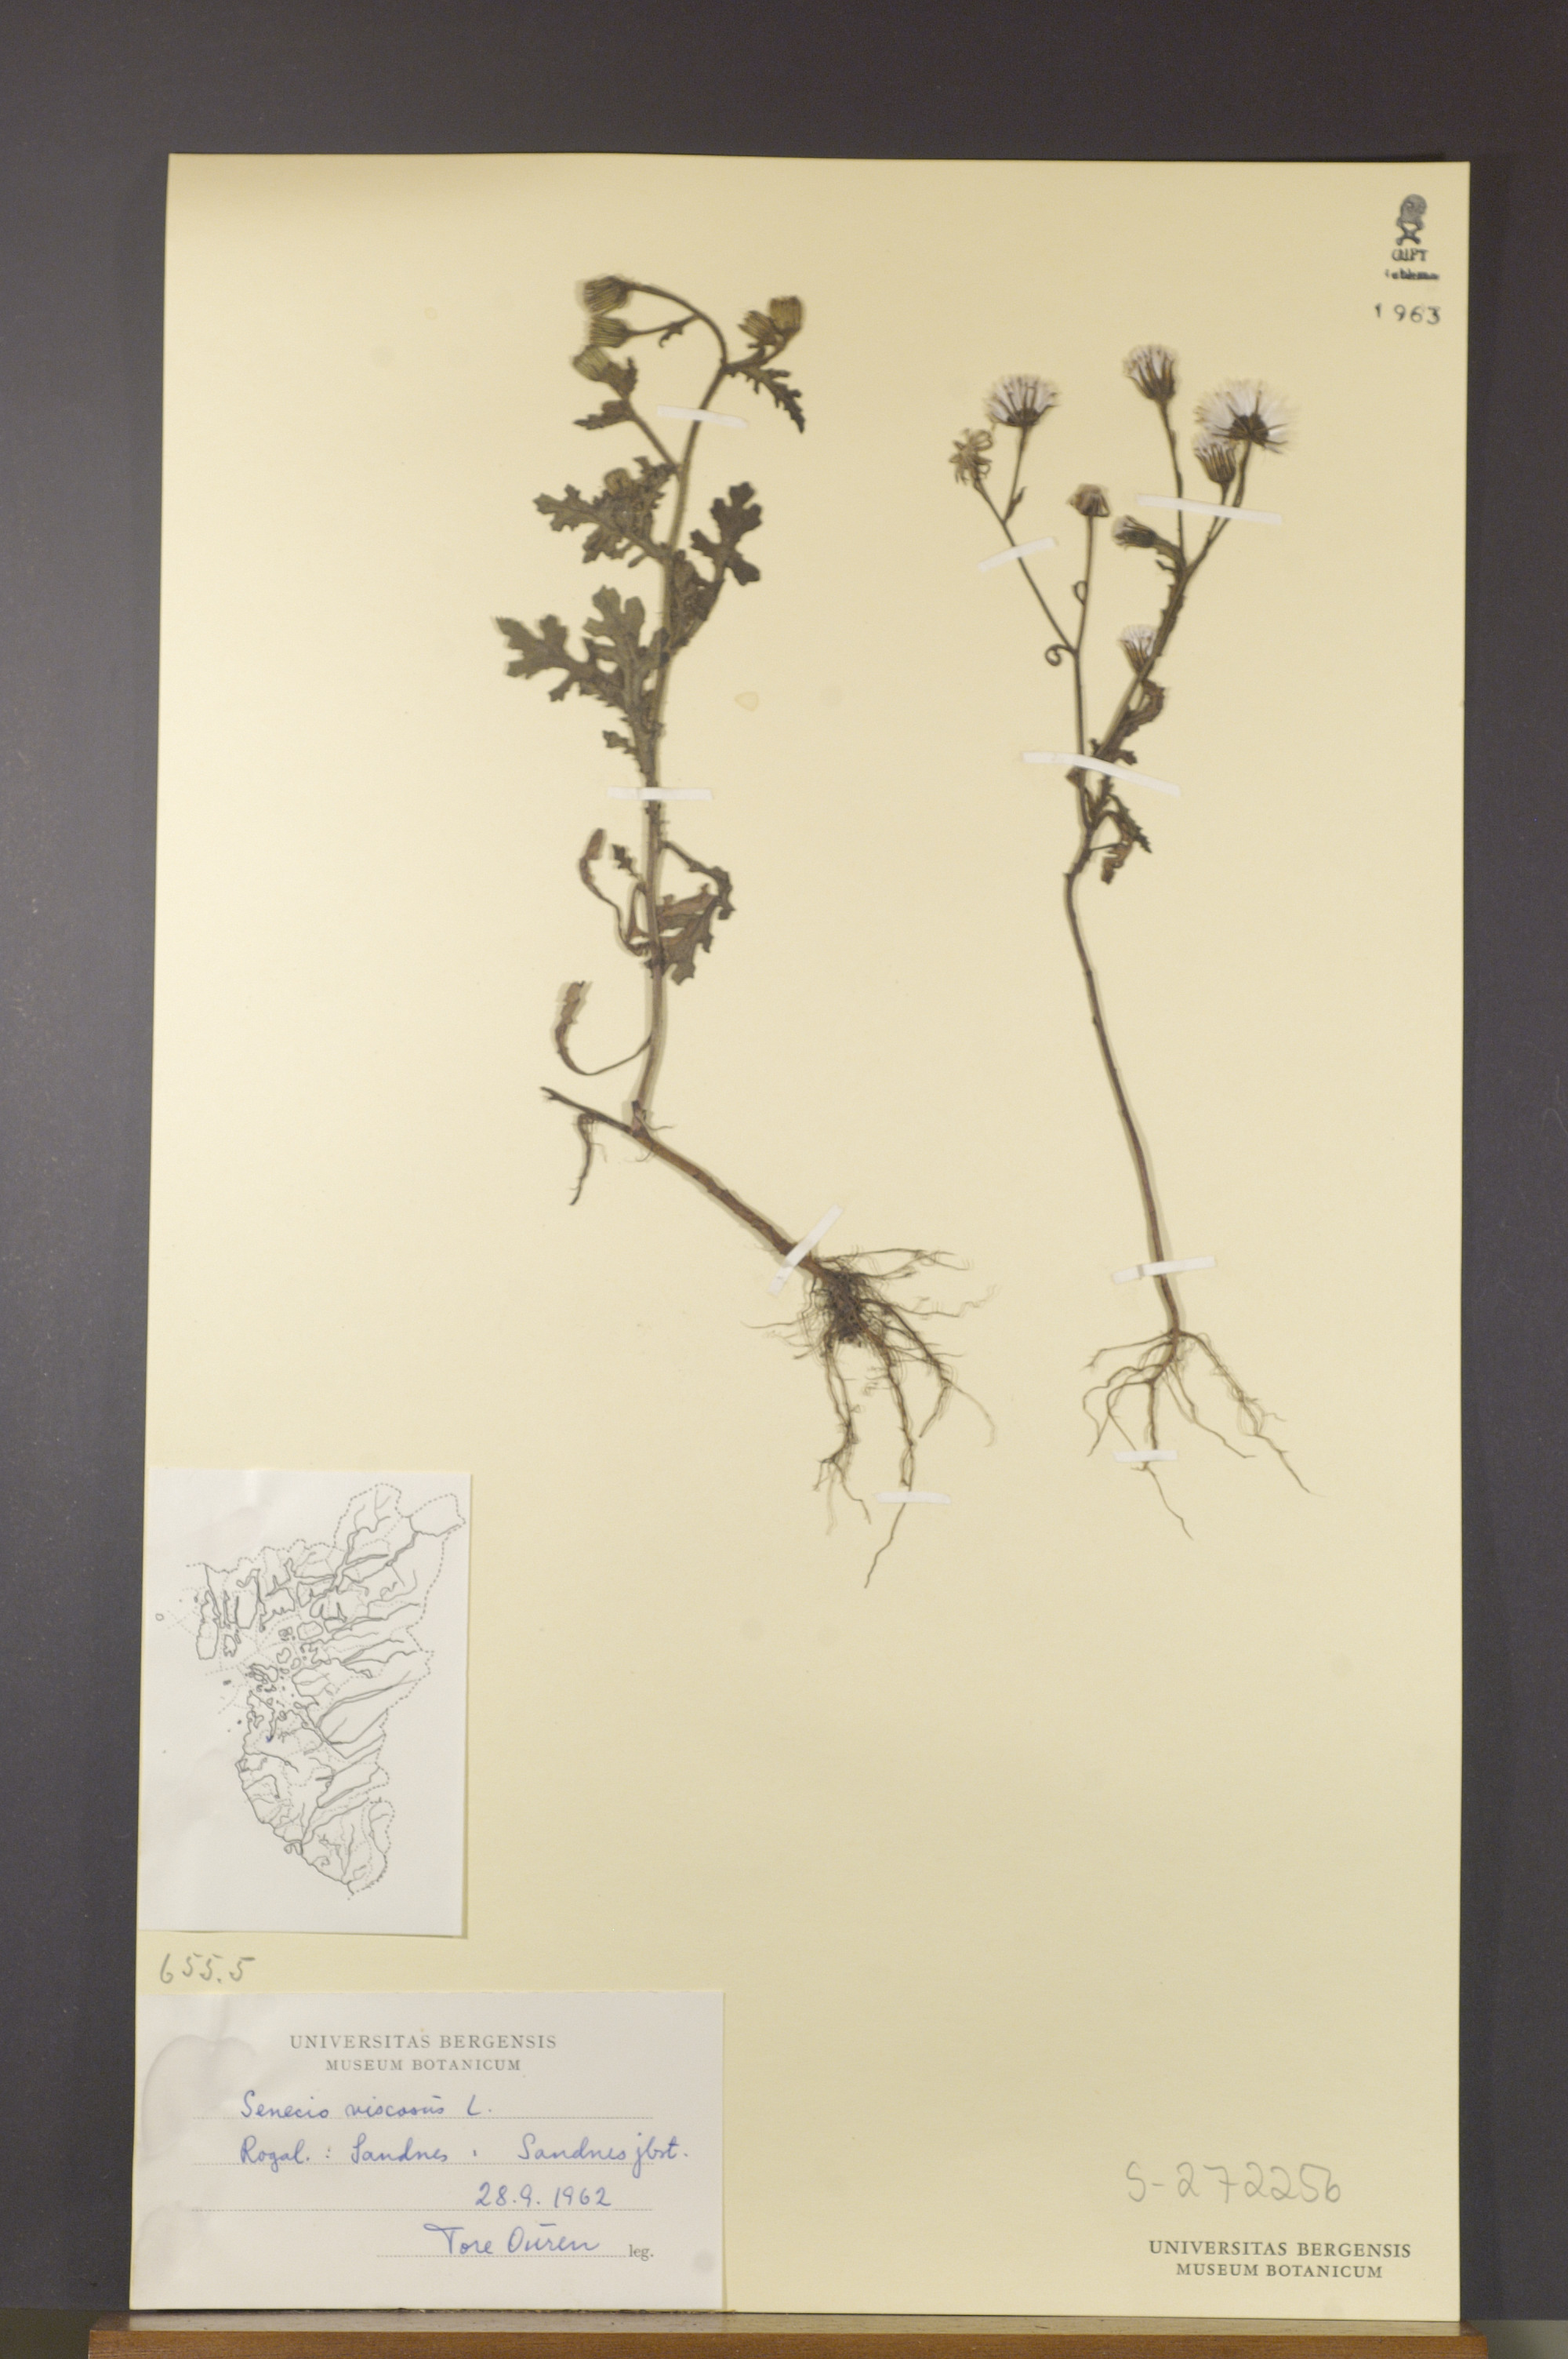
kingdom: Plantae
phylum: Tracheophyta
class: Magnoliopsida
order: Asterales
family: Asteraceae
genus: Senecio
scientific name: Senecio viscosus
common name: Sticky groundsel
